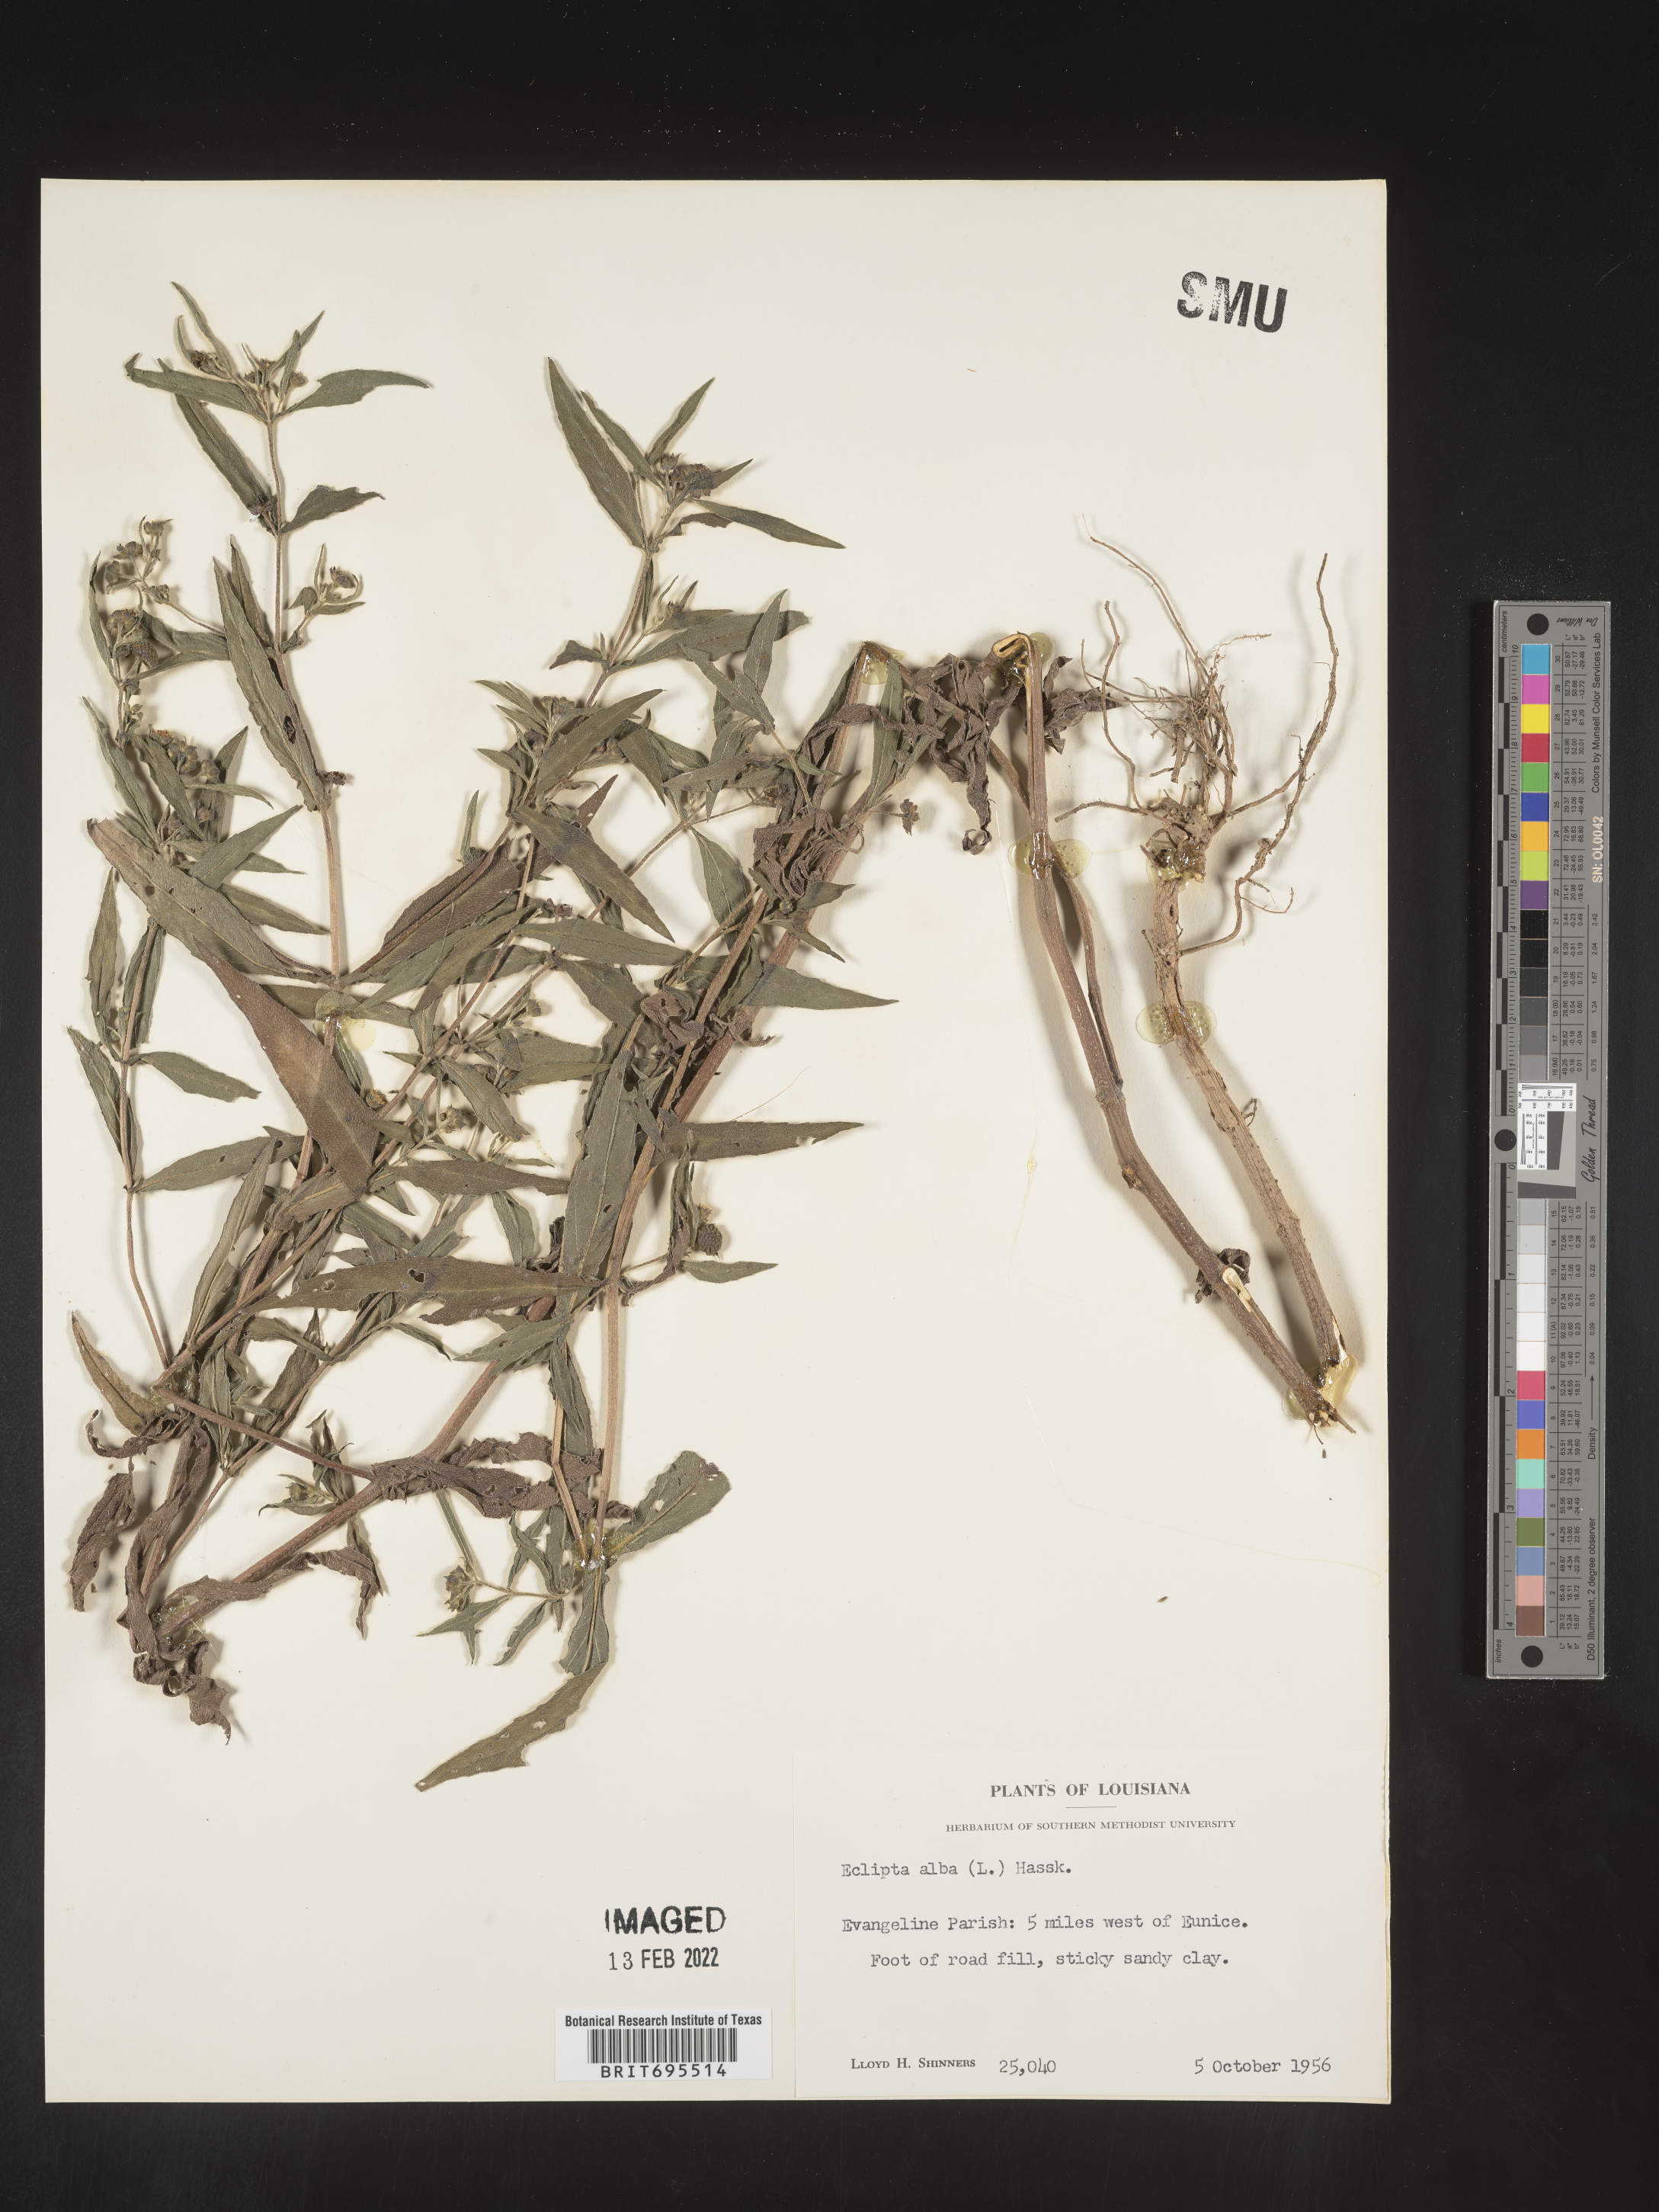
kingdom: Plantae
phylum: Tracheophyta
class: Magnoliopsida
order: Asterales
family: Asteraceae
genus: Eclipta
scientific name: Eclipta alba
